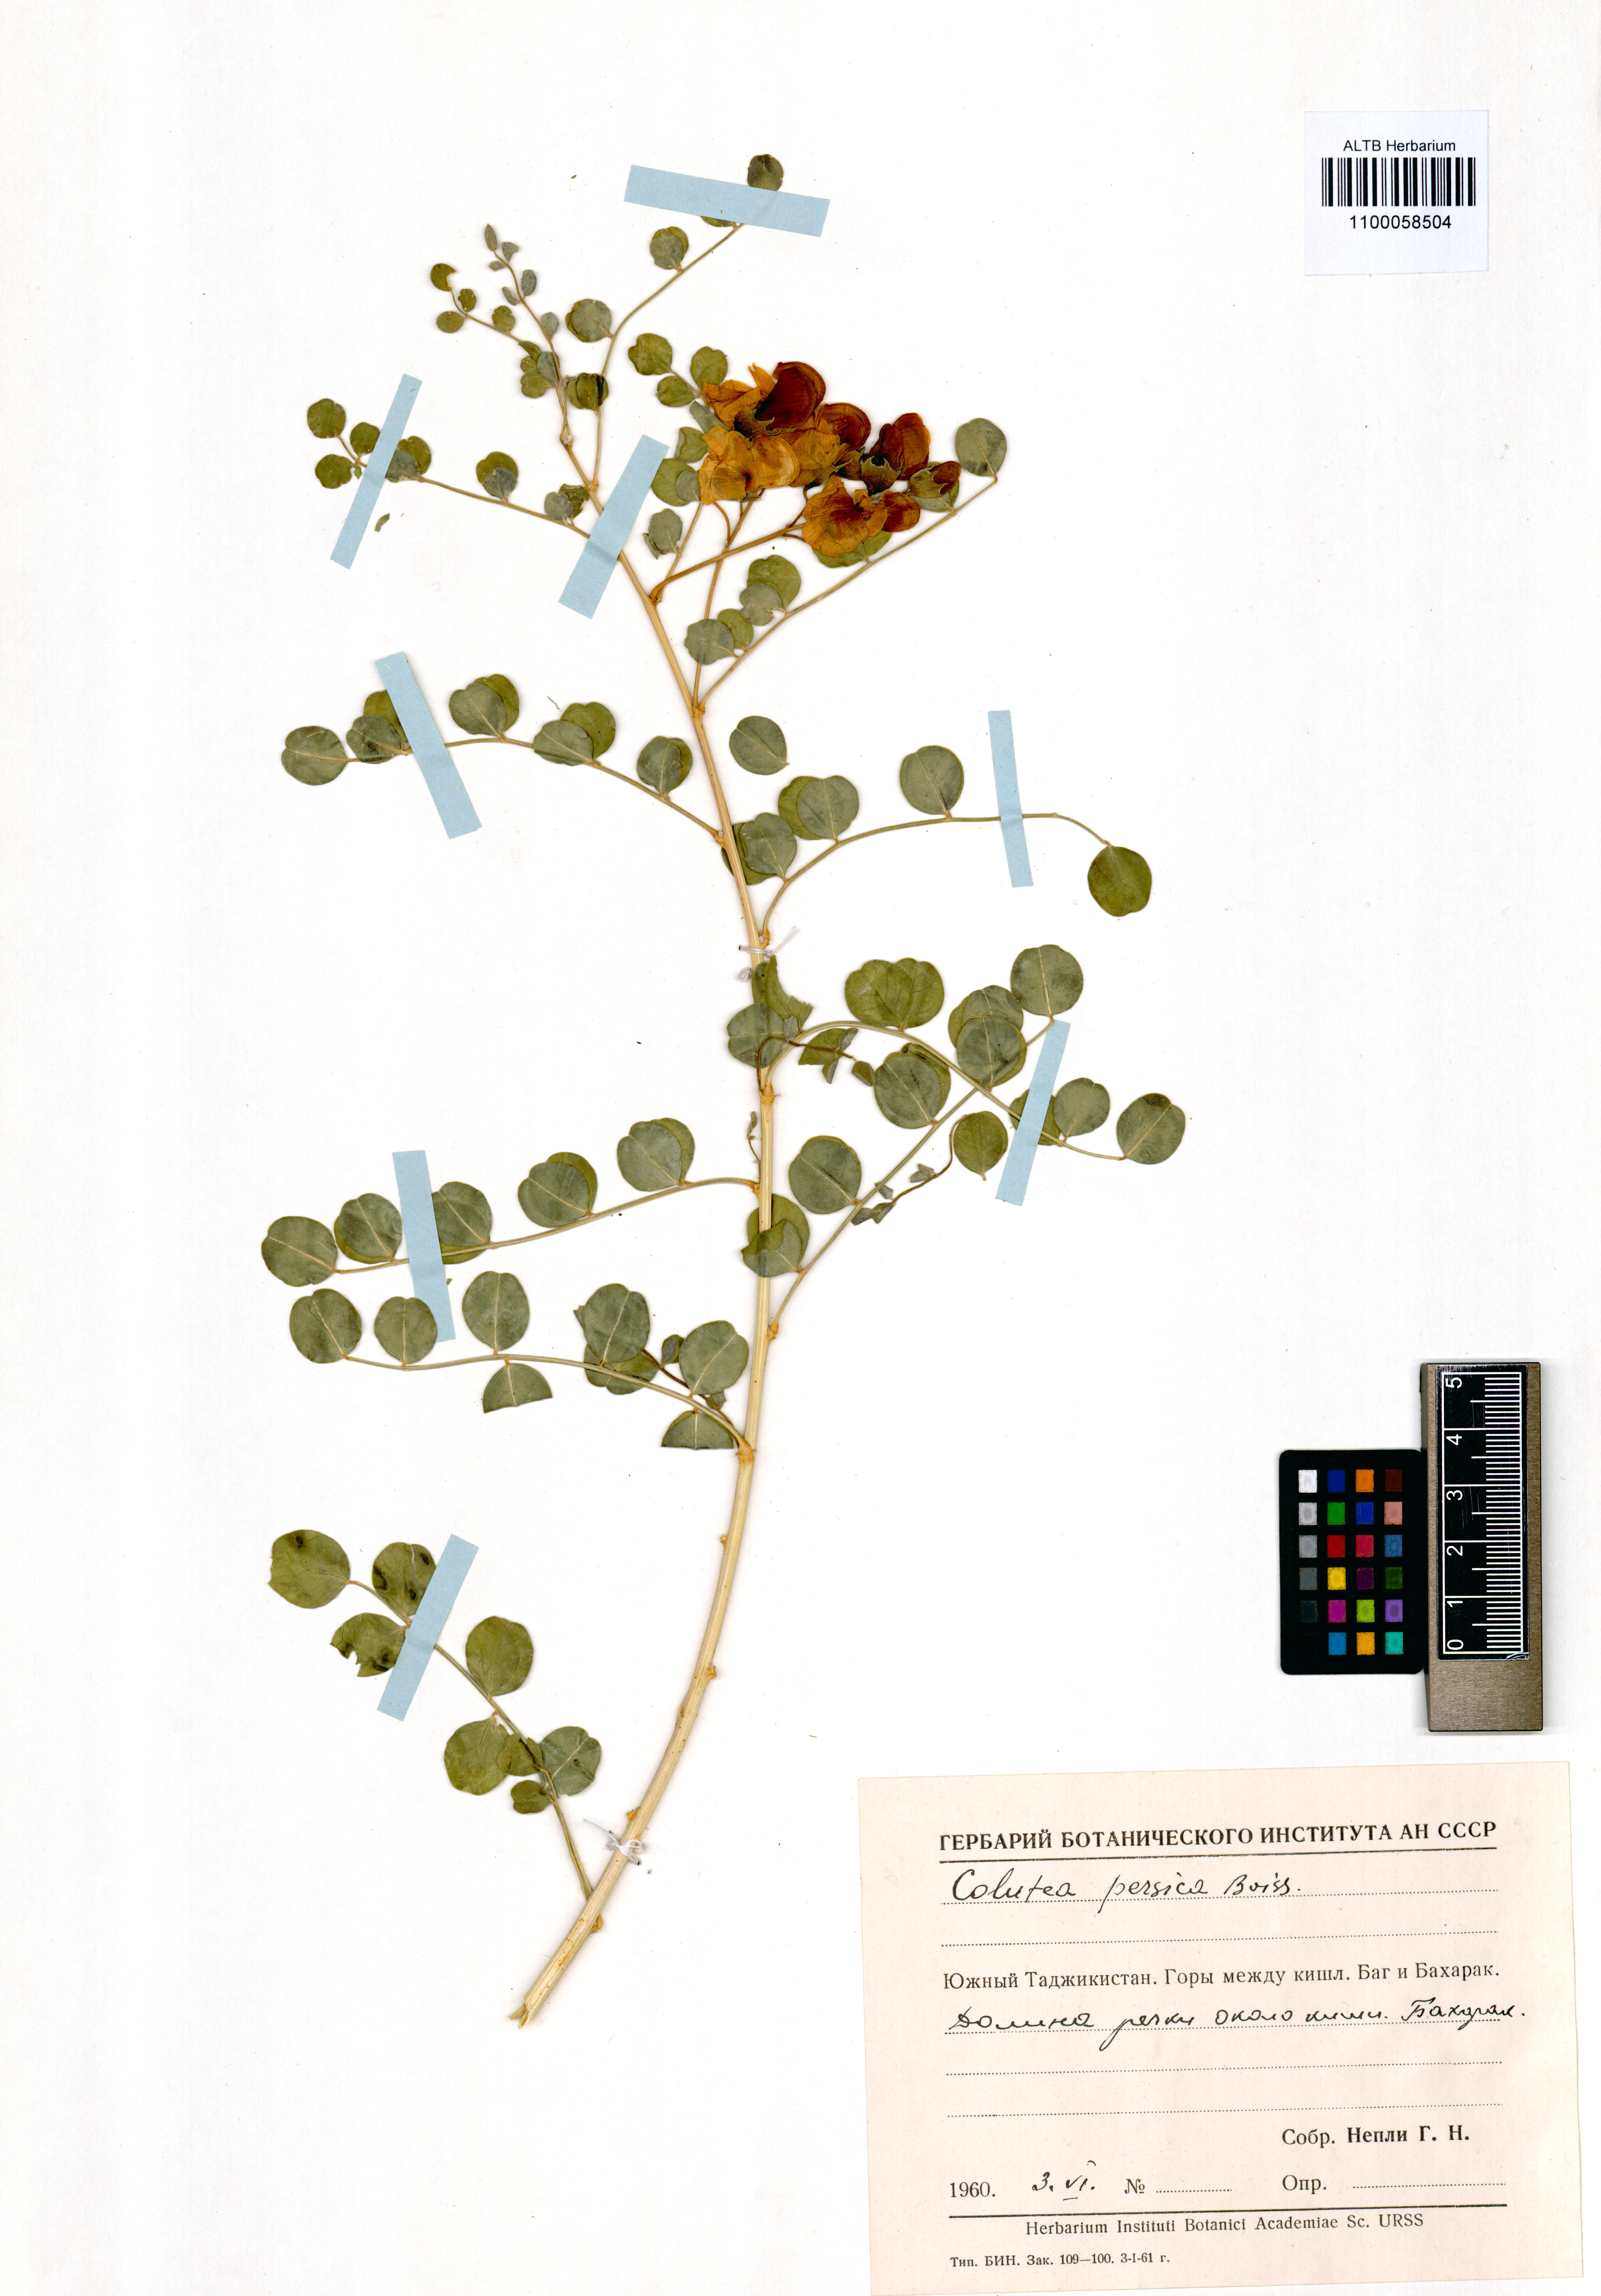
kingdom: Plantae
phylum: Tracheophyta
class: Magnoliopsida
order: Fabales
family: Fabaceae
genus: Colutea
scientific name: Colutea persica
